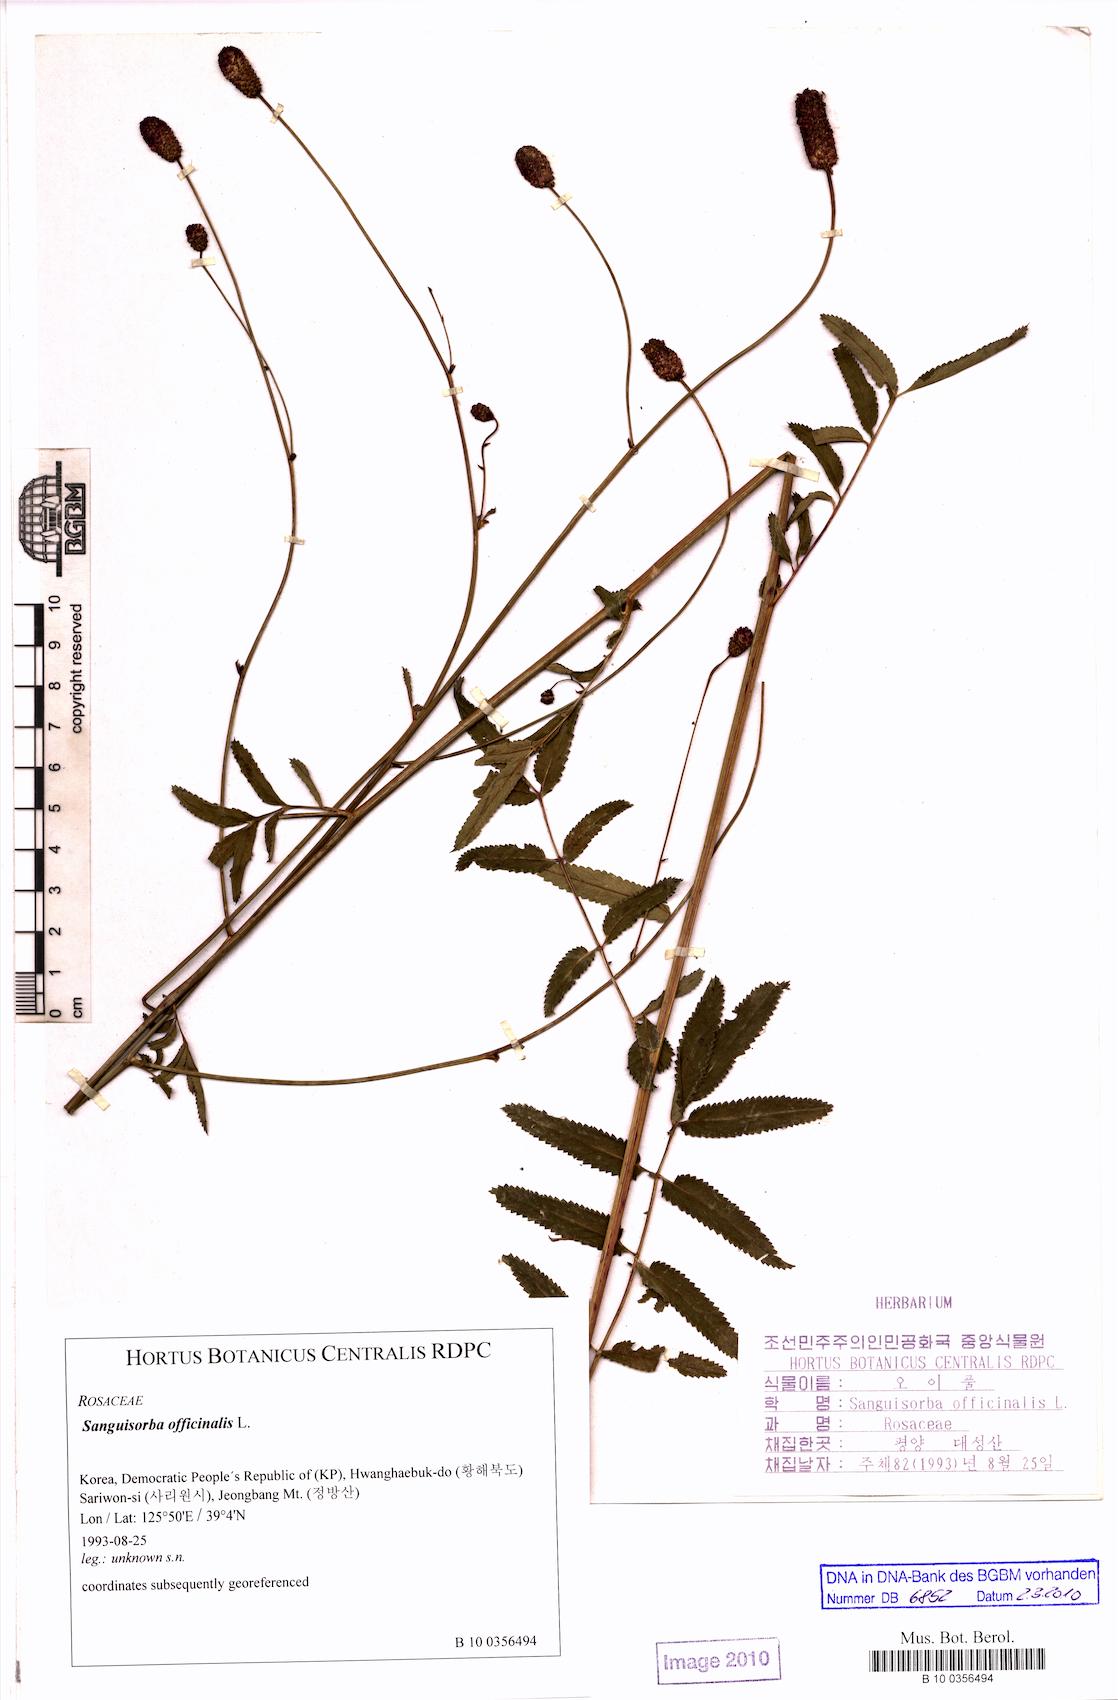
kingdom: Plantae
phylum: Tracheophyta
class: Magnoliopsida
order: Rosales
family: Rosaceae
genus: Sanguisorba
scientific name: Sanguisorba officinalis
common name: Great burnet
